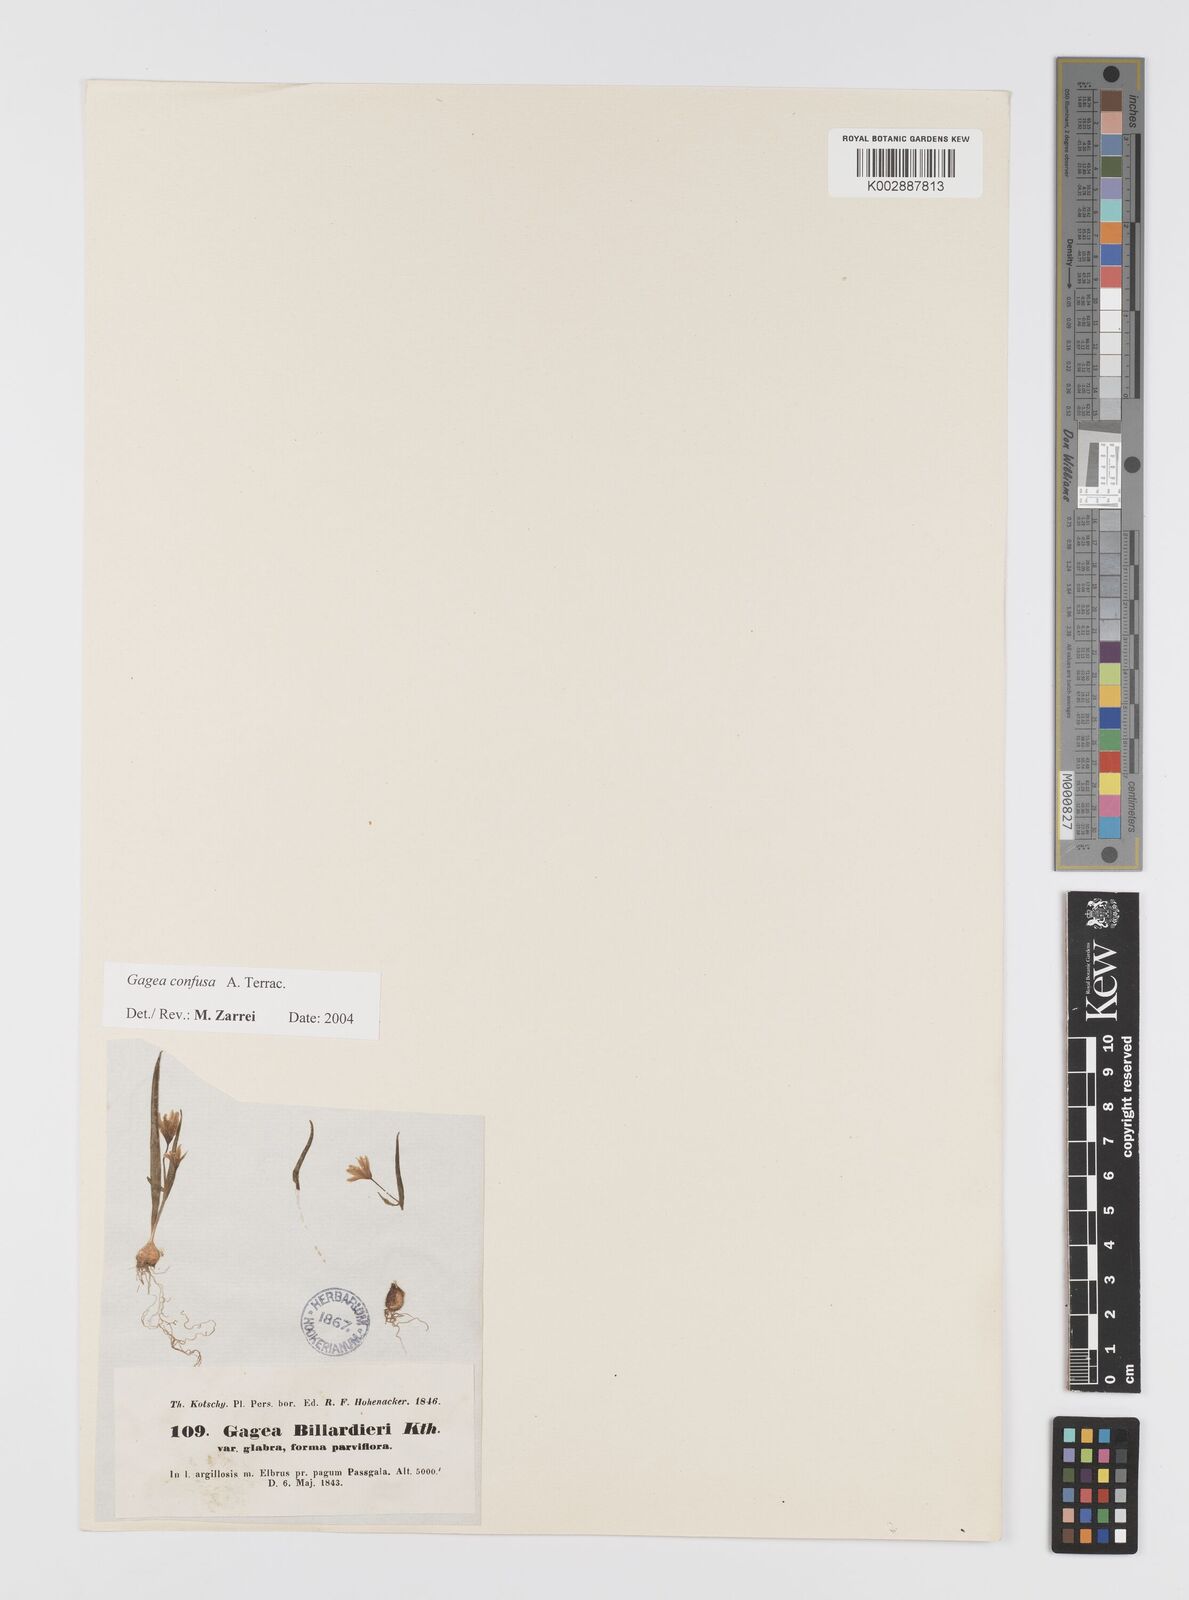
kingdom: Plantae
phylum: Tracheophyta
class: Liliopsida
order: Liliales
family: Liliaceae
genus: Gagea
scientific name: Gagea confusa
